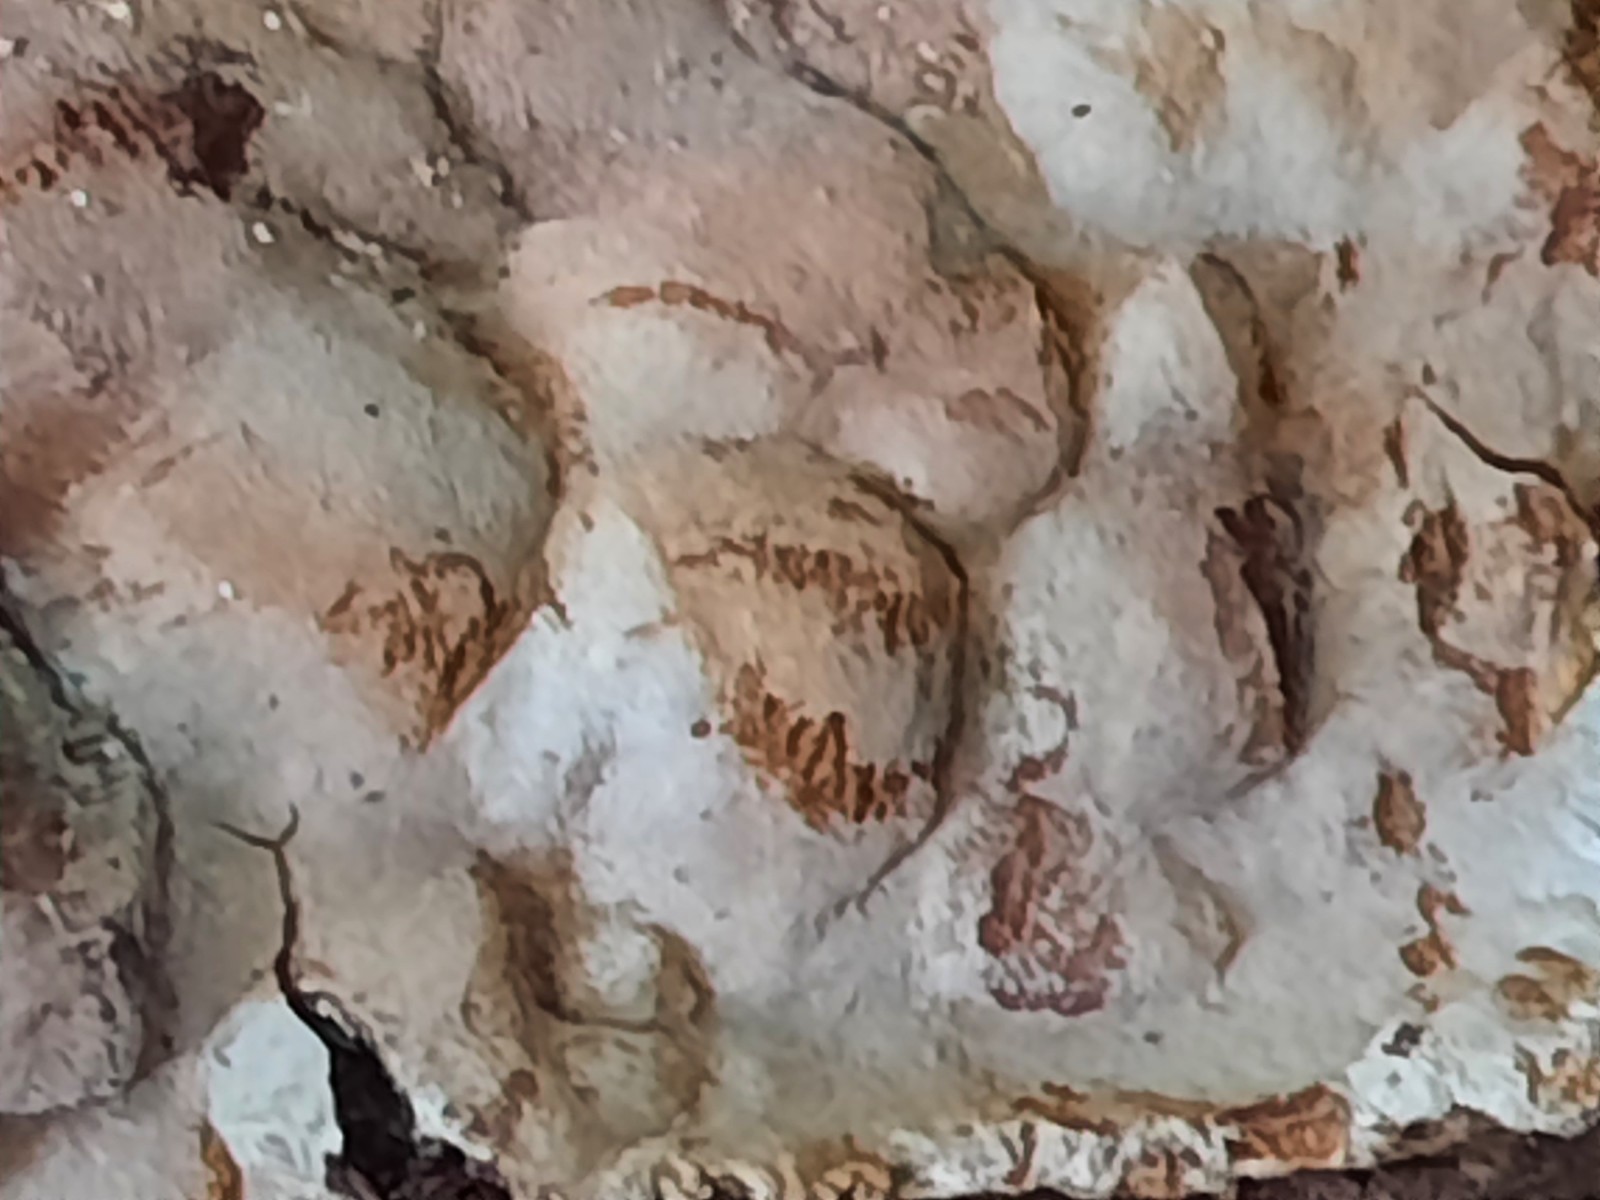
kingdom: Fungi
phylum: Basidiomycota
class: Agaricomycetes
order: Hymenochaetales
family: Hymenochaetaceae
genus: Phellinus
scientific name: Phellinus laevigatus
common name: glat ildporesvamp
